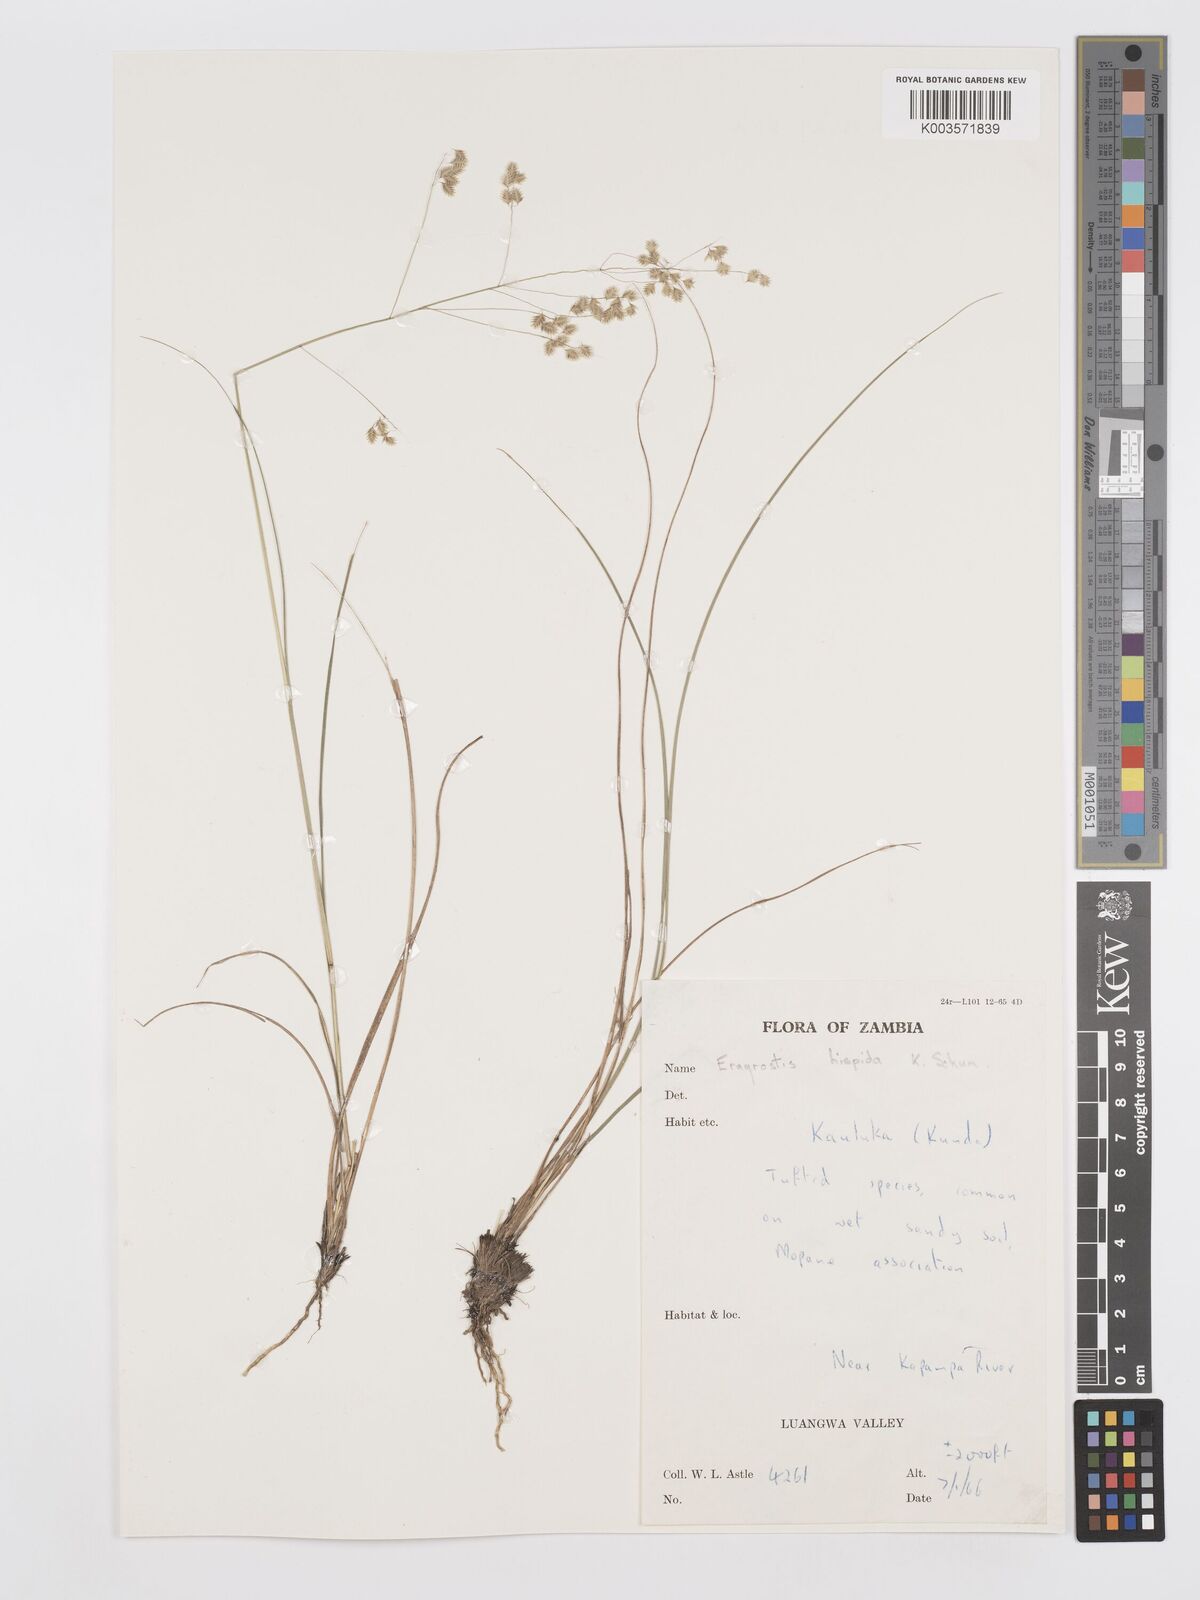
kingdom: Plantae
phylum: Tracheophyta
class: Liliopsida
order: Poales
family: Poaceae
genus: Eragrostis
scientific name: Eragrostis hispida
